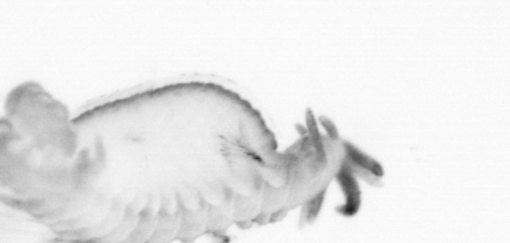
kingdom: Animalia
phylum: Annelida
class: Polychaeta
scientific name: Polychaeta
